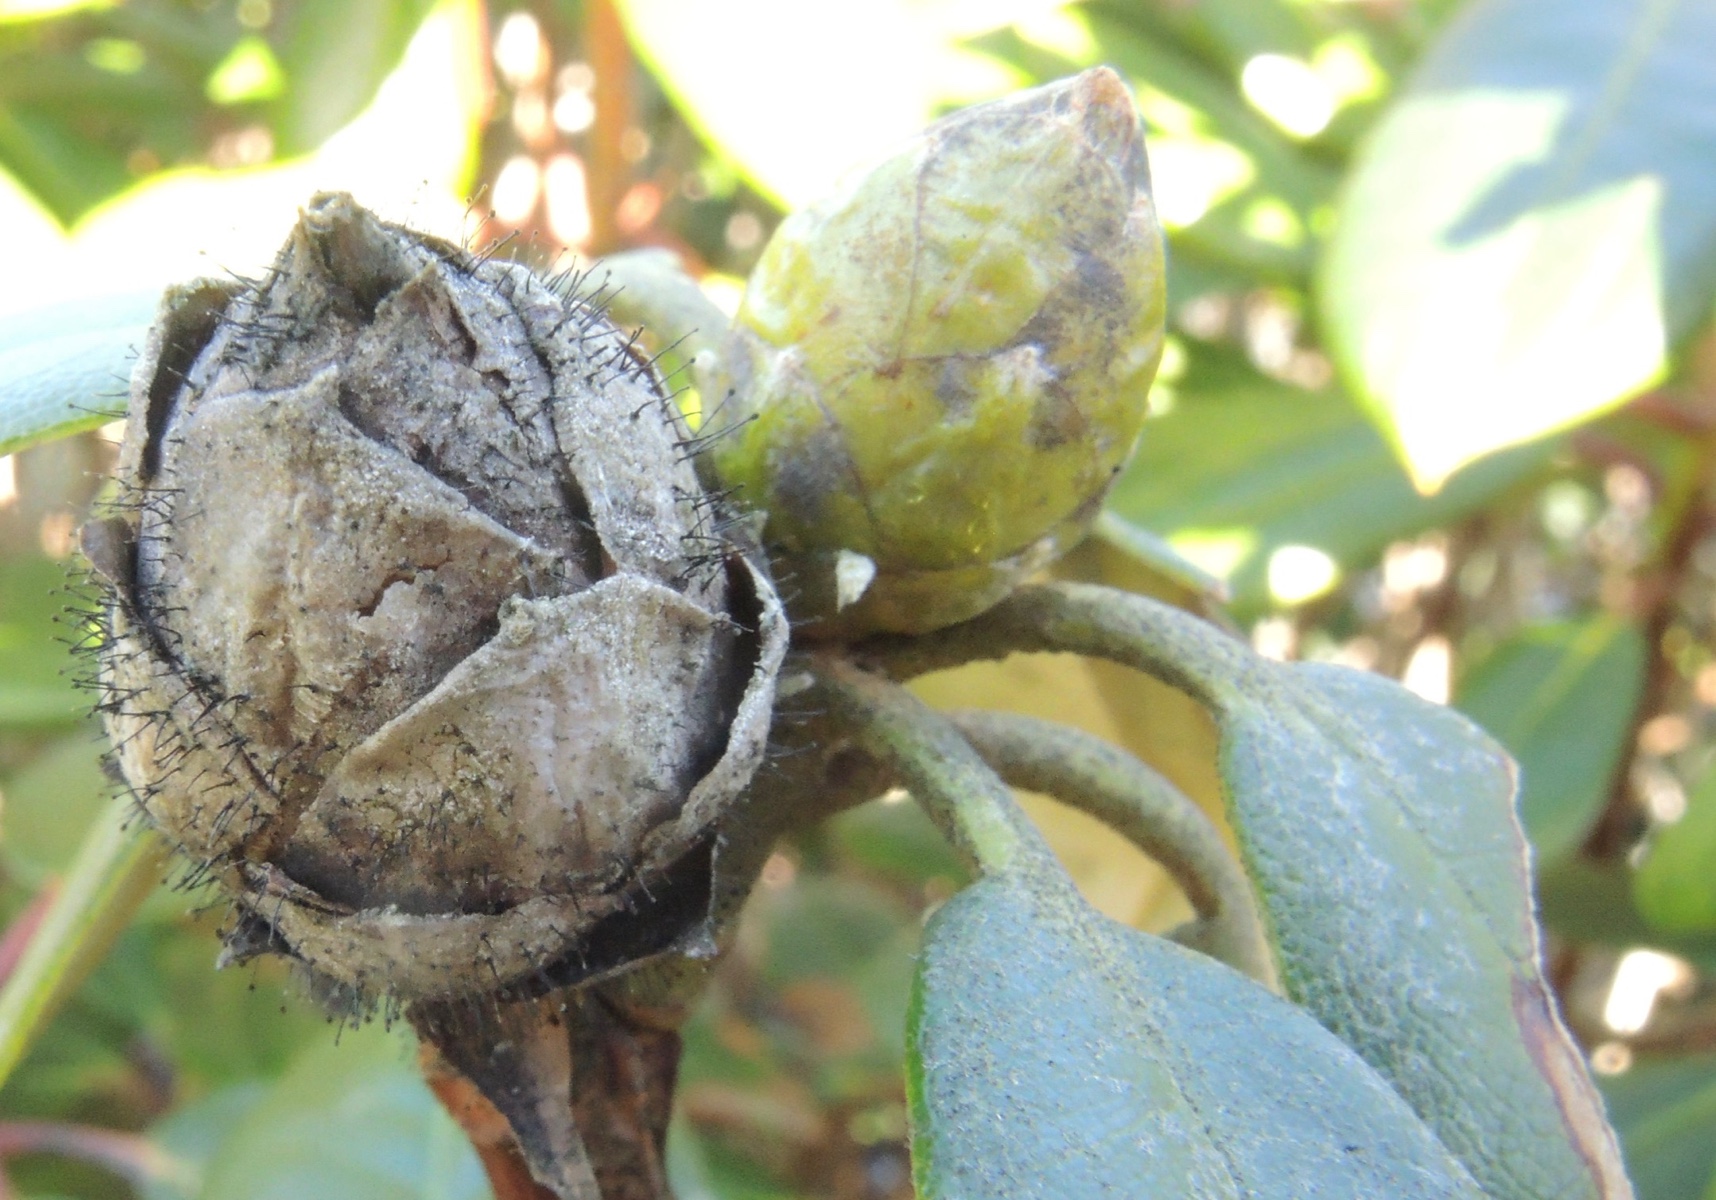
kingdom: Fungi
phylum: Ascomycota
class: Dothideomycetes
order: Pleosporales
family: Melanommataceae
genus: Seifertia
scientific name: Seifertia azaleae
